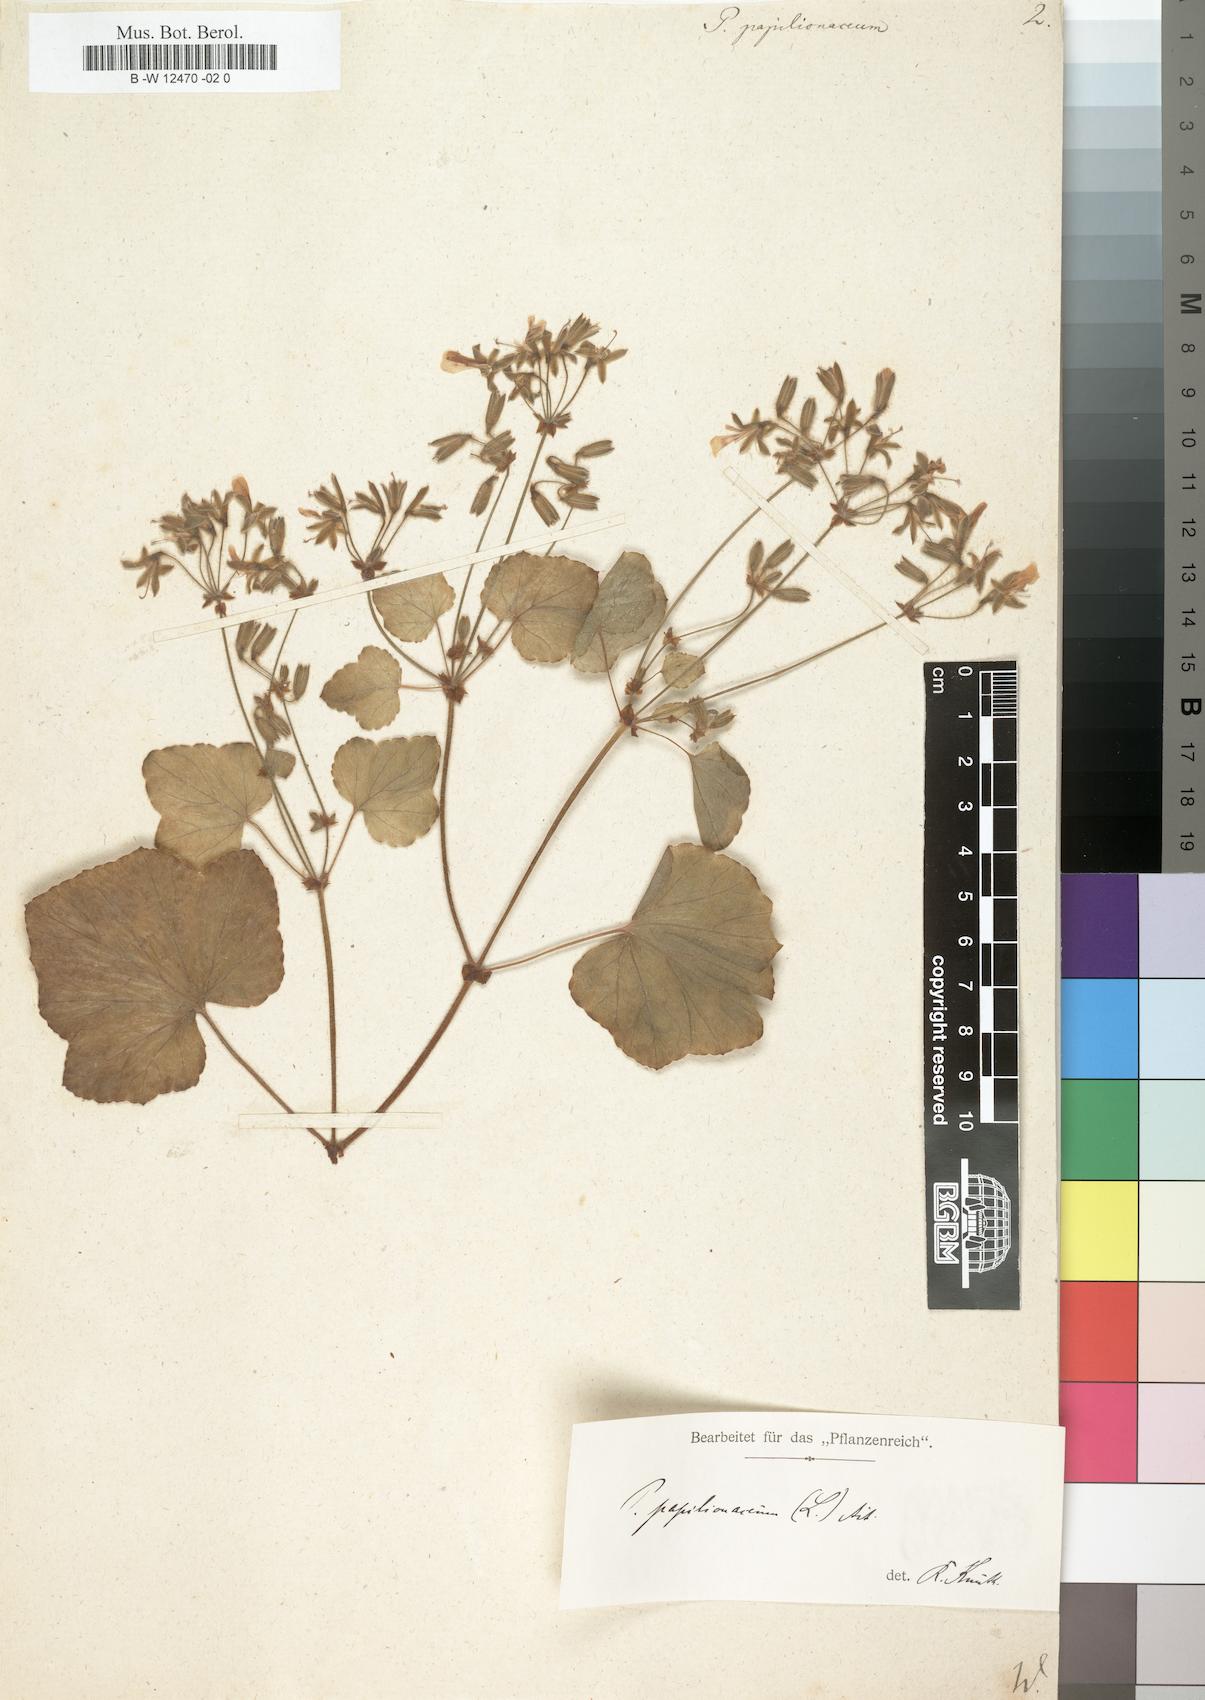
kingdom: Plantae
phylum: Tracheophyta
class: Magnoliopsida
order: Geraniales
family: Geraniaceae
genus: Pelargonium
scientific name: Pelargonium papilionaceum
